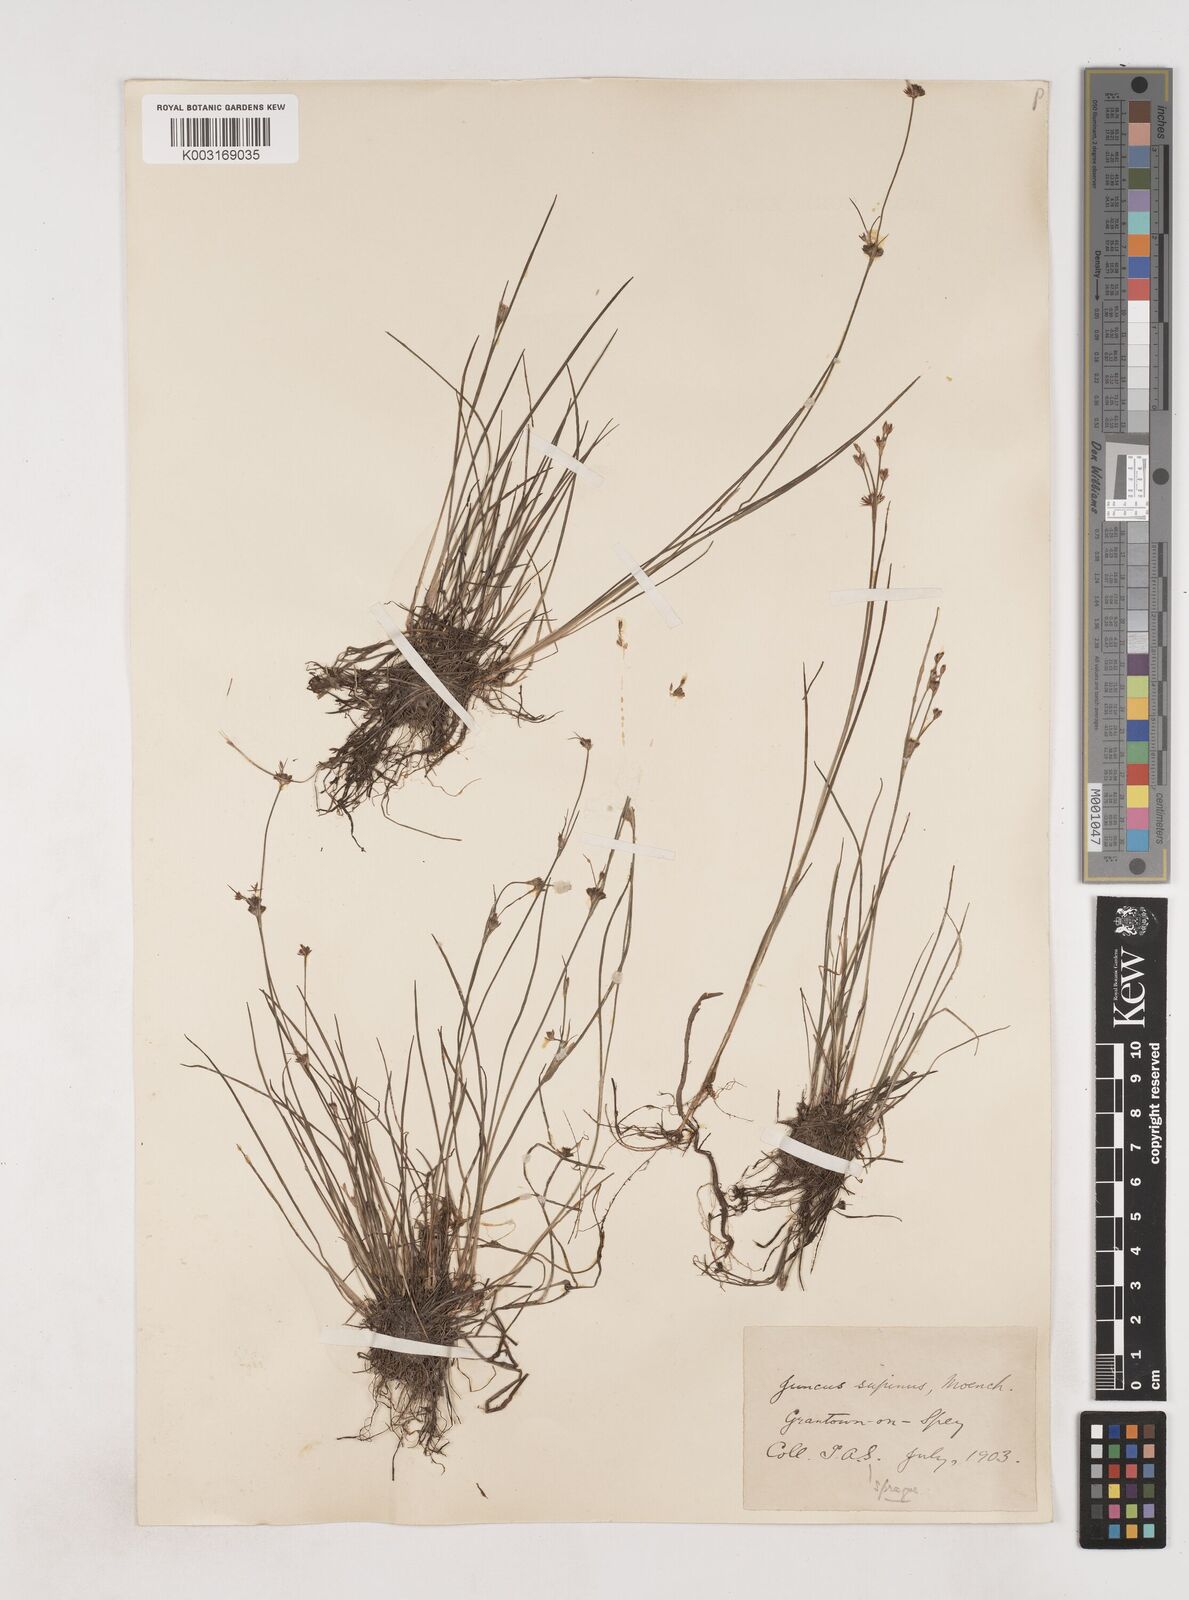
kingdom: Plantae
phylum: Tracheophyta
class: Liliopsida
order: Poales
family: Juncaceae
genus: Juncus
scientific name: Juncus bulbosus
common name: Bulbous rush
